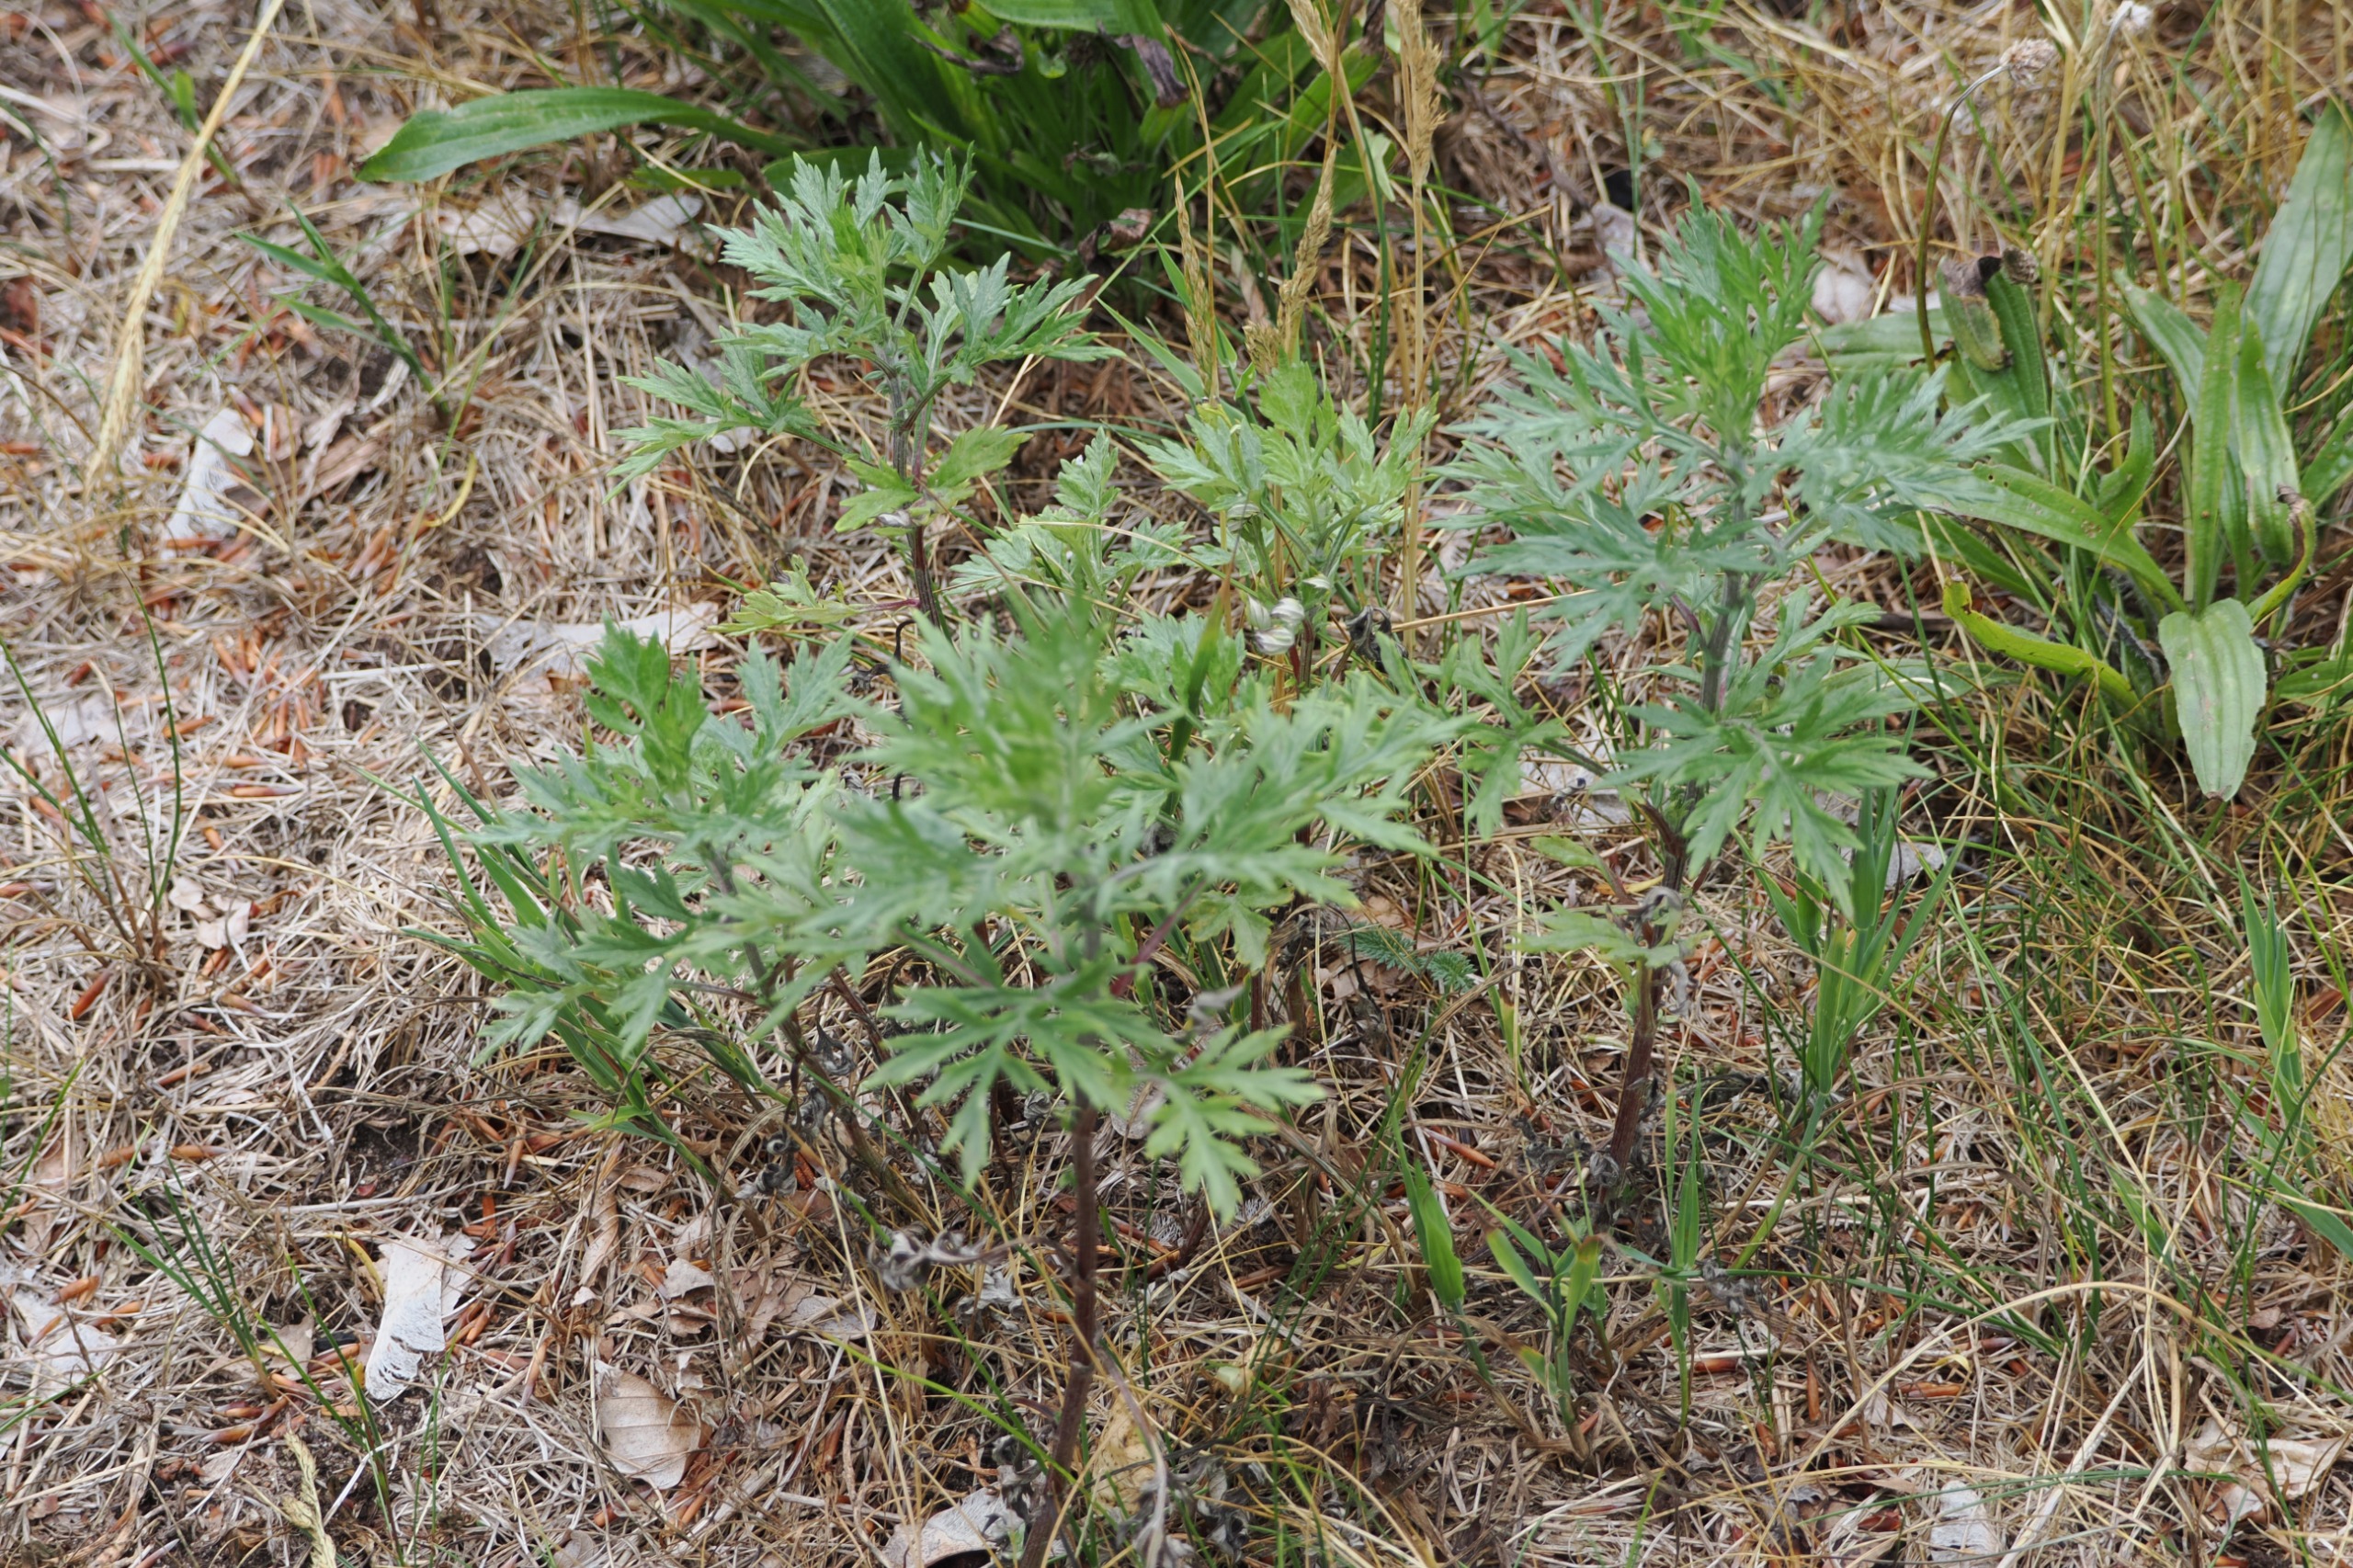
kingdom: Plantae
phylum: Tracheophyta
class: Magnoliopsida
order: Asterales
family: Asteraceae
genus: Artemisia
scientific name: Artemisia vulgaris
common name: Grå-bynke
